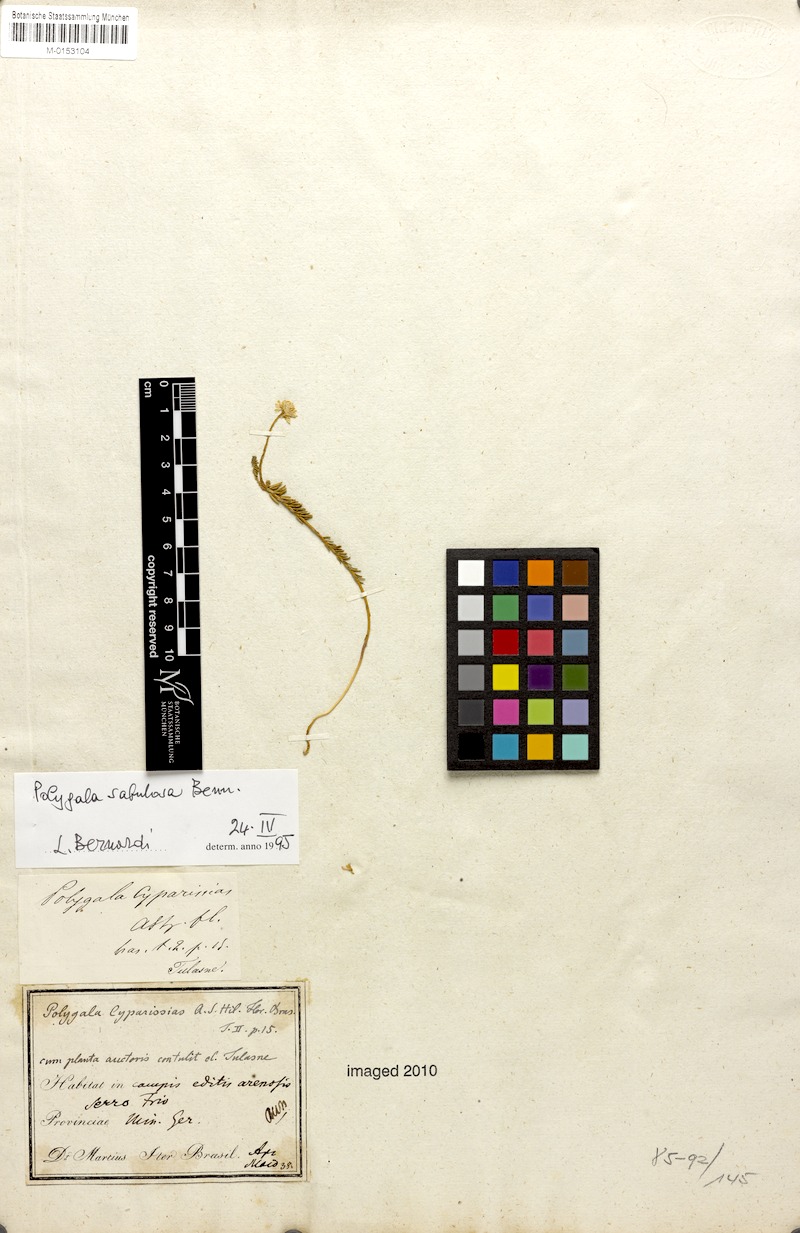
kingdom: Plantae
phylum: Tracheophyta
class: Magnoliopsida
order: Fabales
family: Polygalaceae
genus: Polygala
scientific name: Polygala sellowiana
